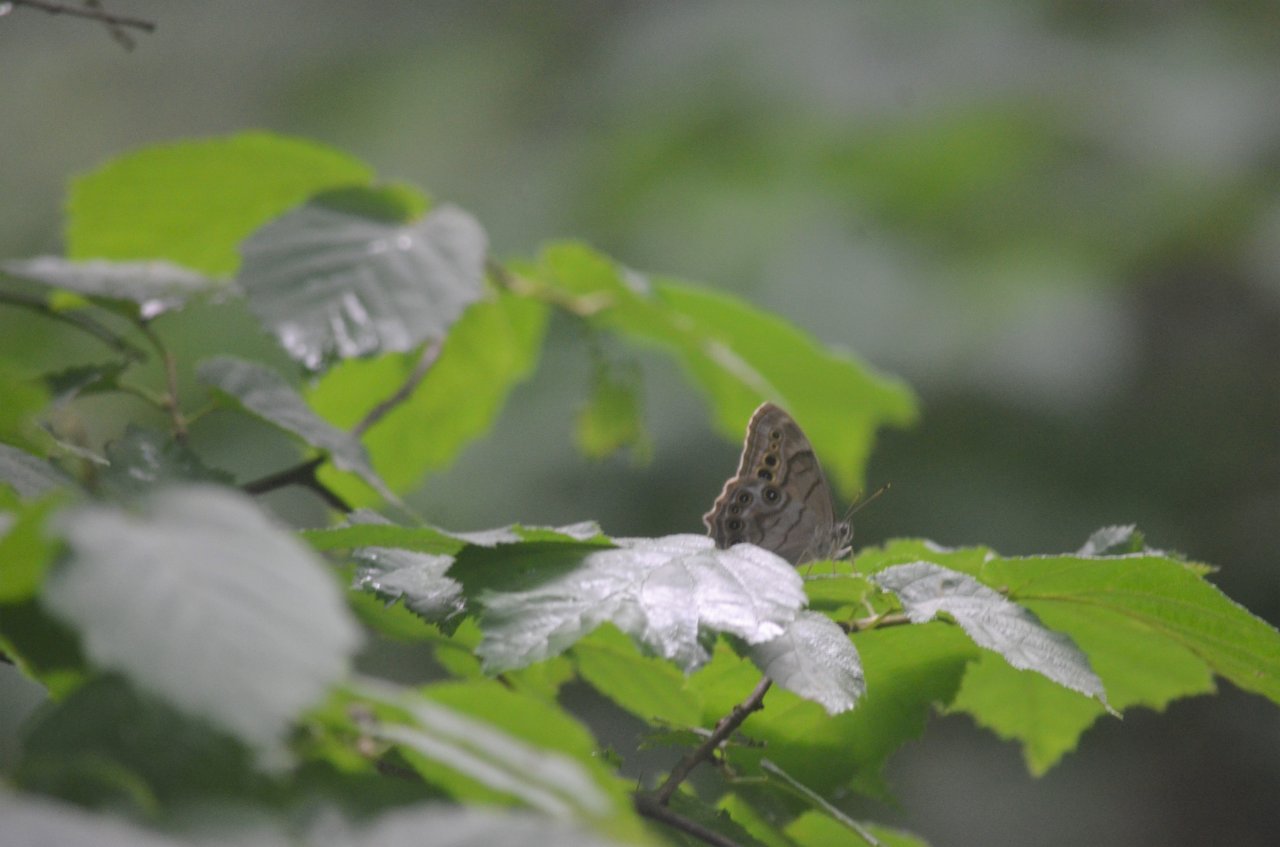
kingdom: Animalia
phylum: Arthropoda
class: Insecta
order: Lepidoptera
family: Nymphalidae
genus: Lethe
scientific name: Lethe anthedon
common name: Northern Pearly-Eye
